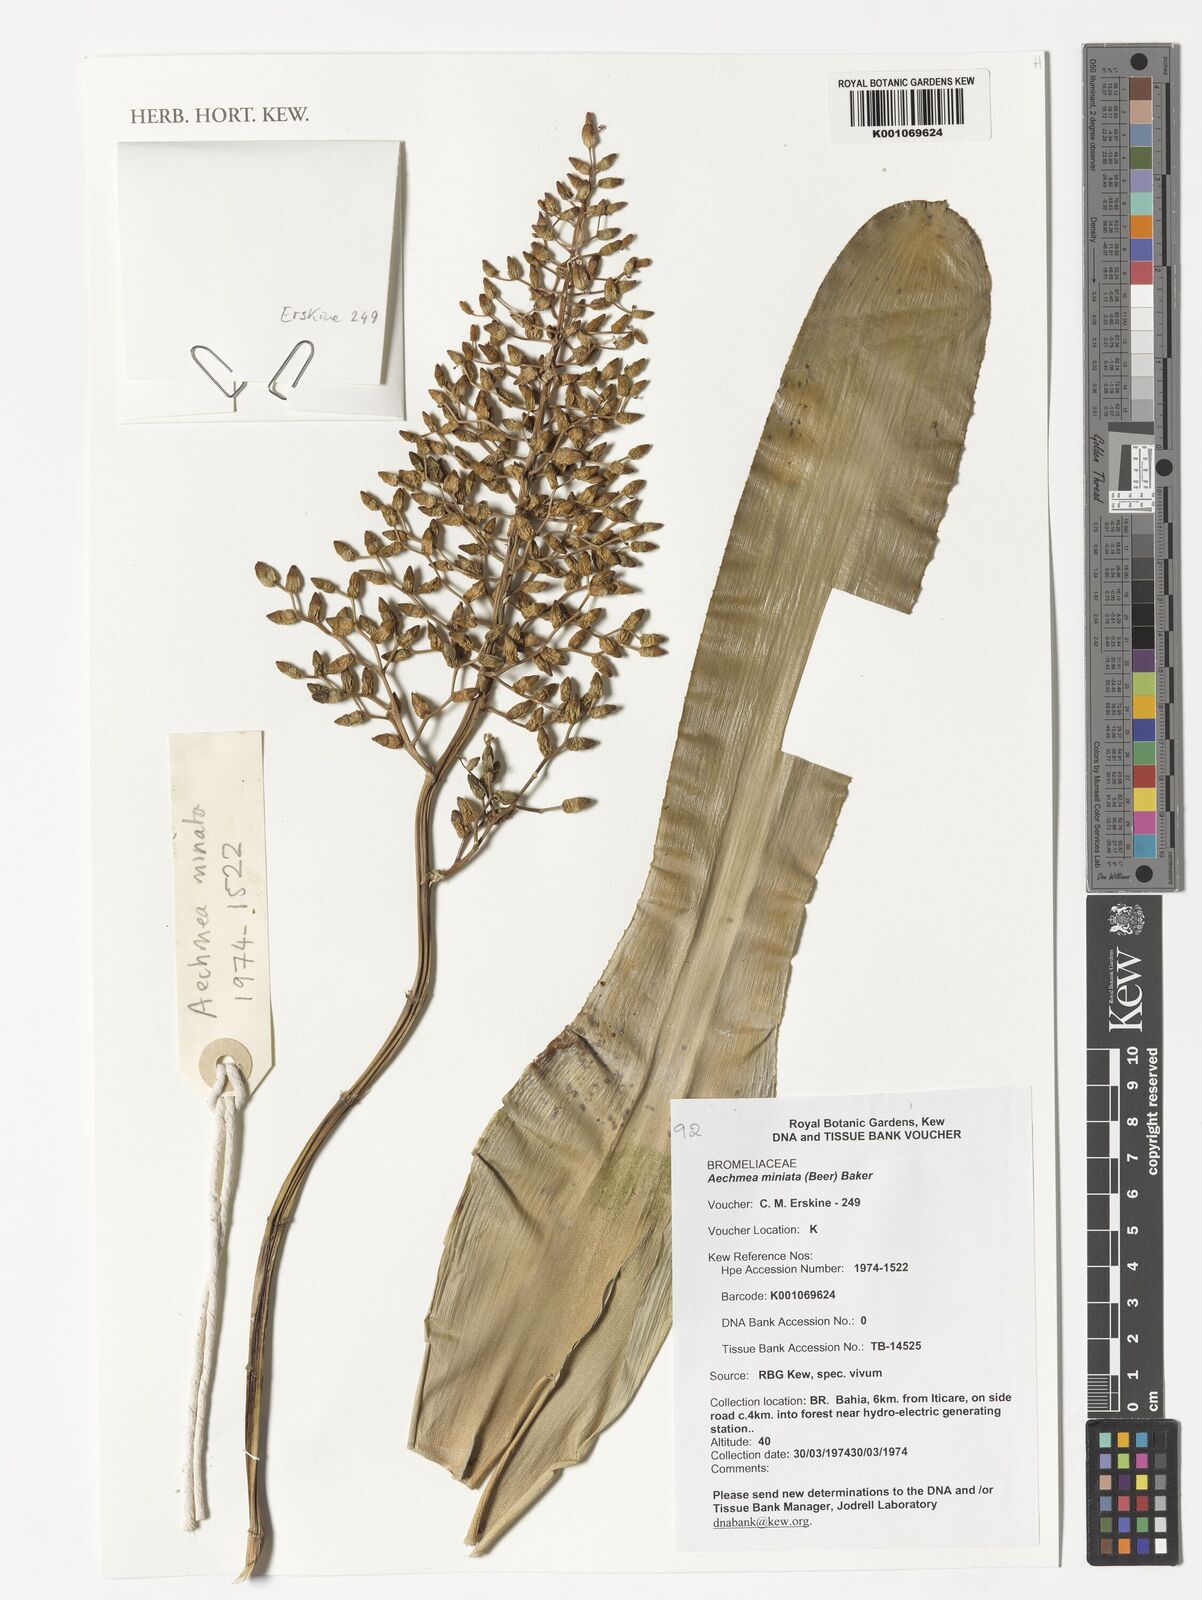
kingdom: Plantae
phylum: Tracheophyta
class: Liliopsida
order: Poales
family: Bromeliaceae
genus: Aechmea
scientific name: Aechmea miniata
